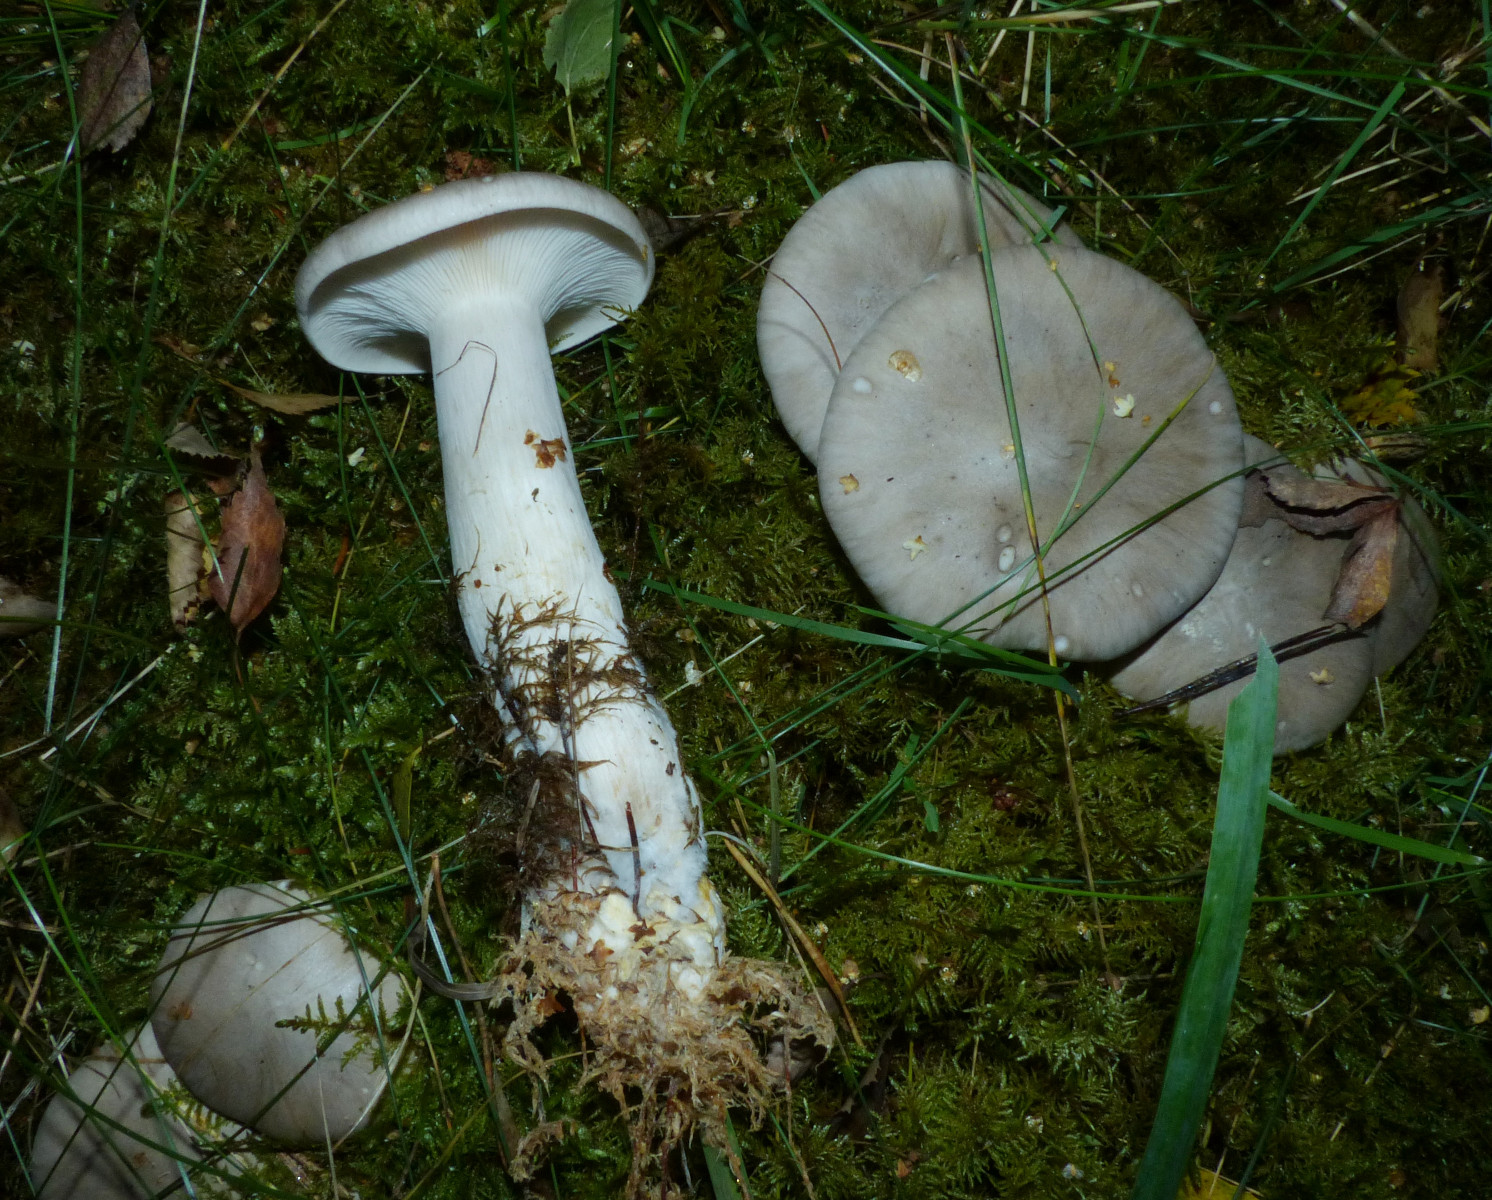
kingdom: Fungi
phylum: Basidiomycota
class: Agaricomycetes
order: Agaricales
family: Tricholomataceae
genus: Clitocybe
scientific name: Clitocybe nebularis
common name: tåge-tragthat
